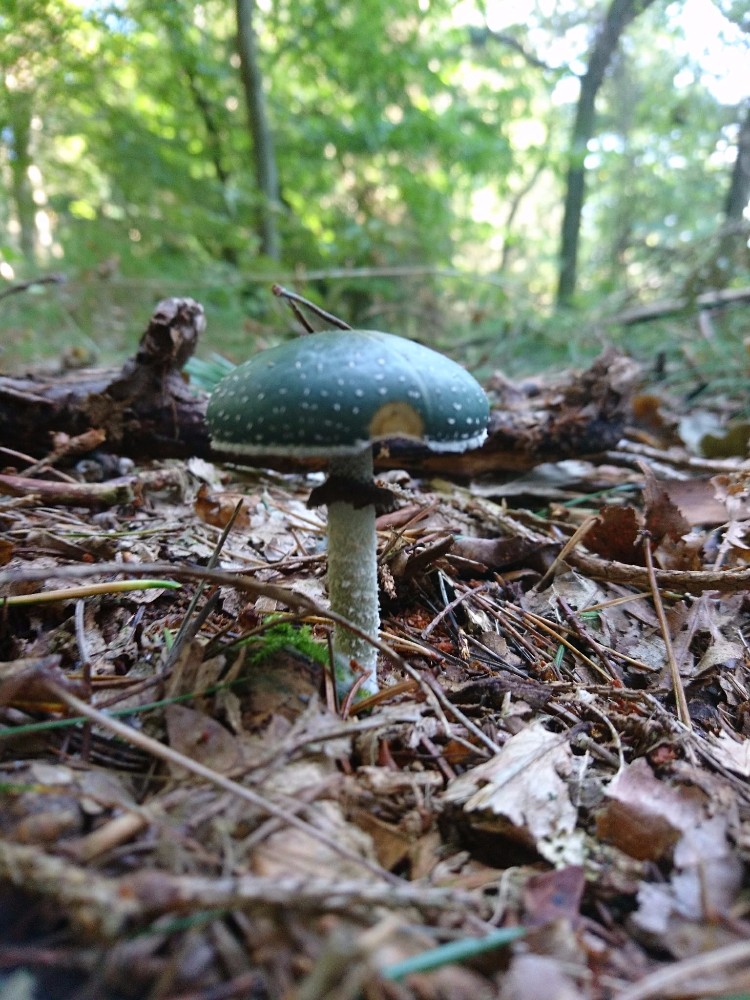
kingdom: Fungi
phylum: Basidiomycota
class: Agaricomycetes
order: Agaricales
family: Strophariaceae
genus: Stropharia
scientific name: Stropharia aeruginosa
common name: spanskgrøn bredblad
